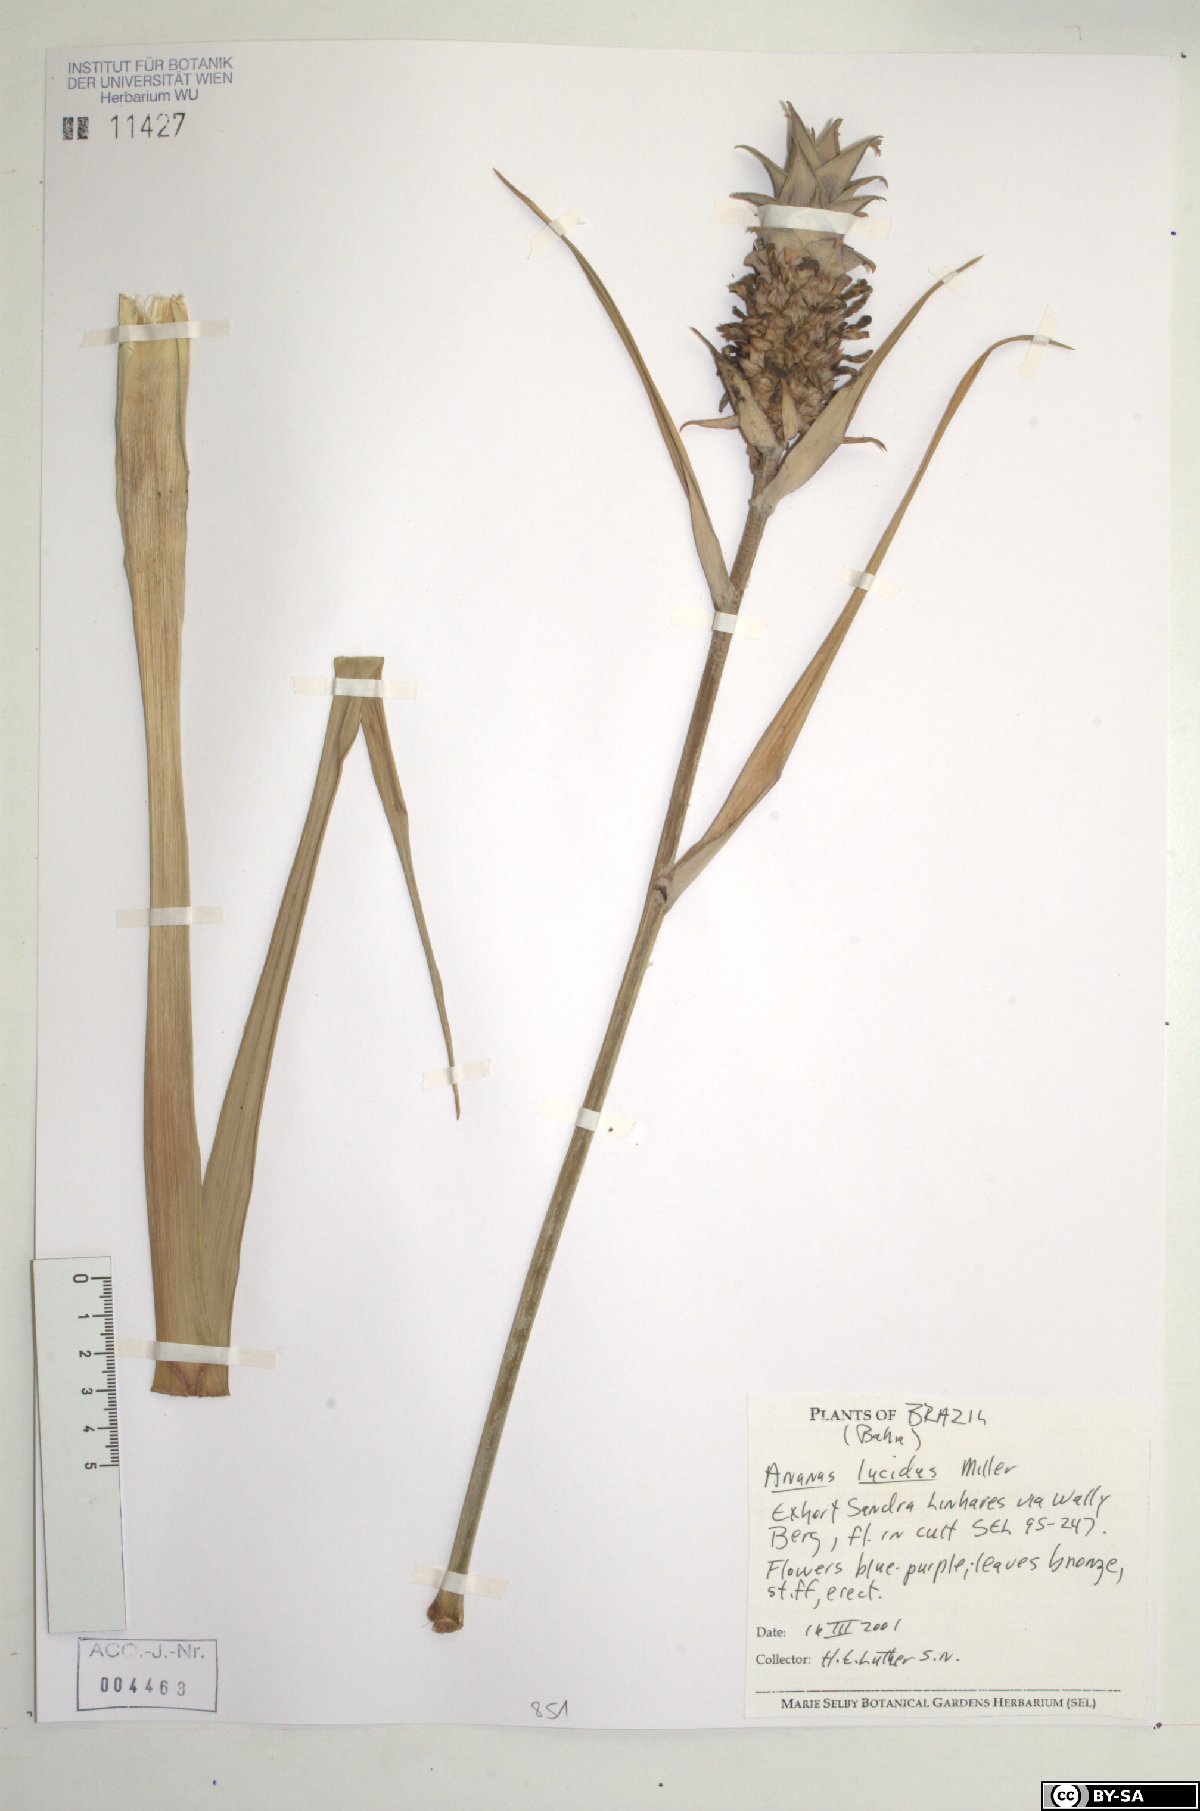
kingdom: Plantae
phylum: Tracheophyta
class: Liliopsida
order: Poales
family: Bromeliaceae
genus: Ananas
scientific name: Ananas comosus
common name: Pineapple
